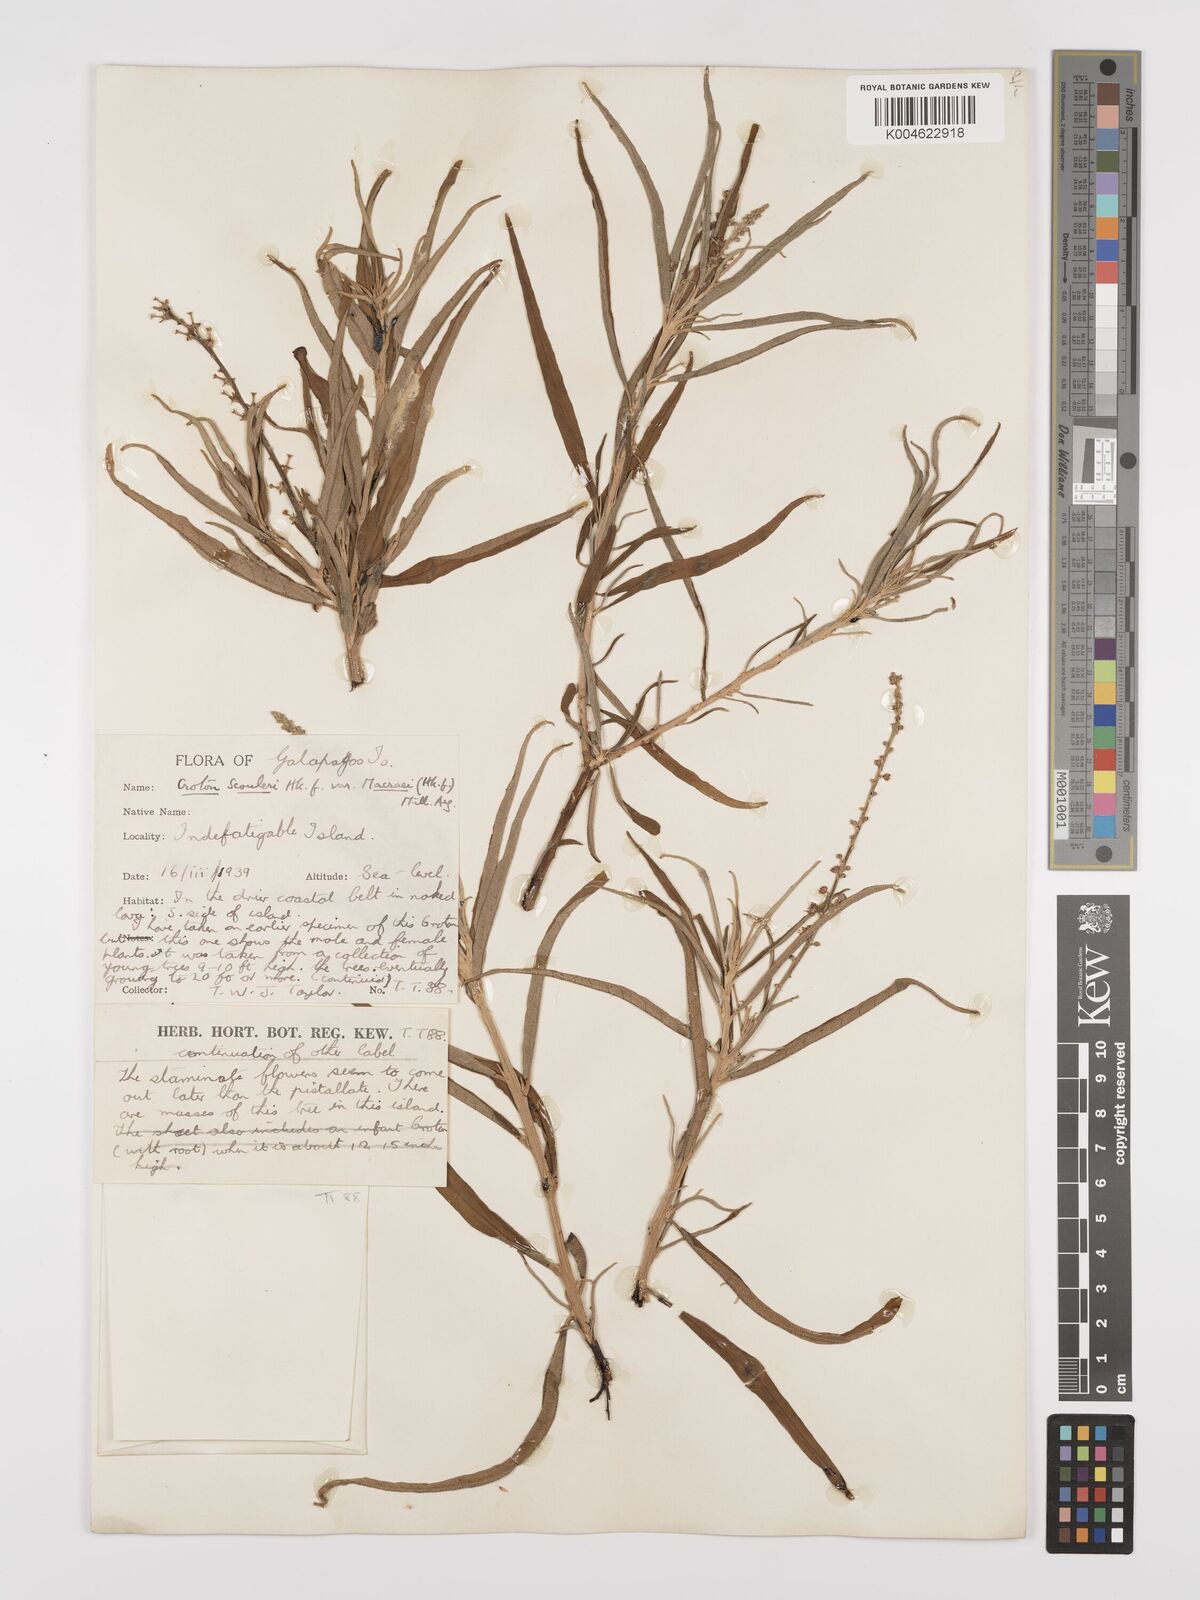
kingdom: Plantae
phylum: Tracheophyta
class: Magnoliopsida
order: Malpighiales
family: Euphorbiaceae
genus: Croton
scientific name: Croton scouleri
